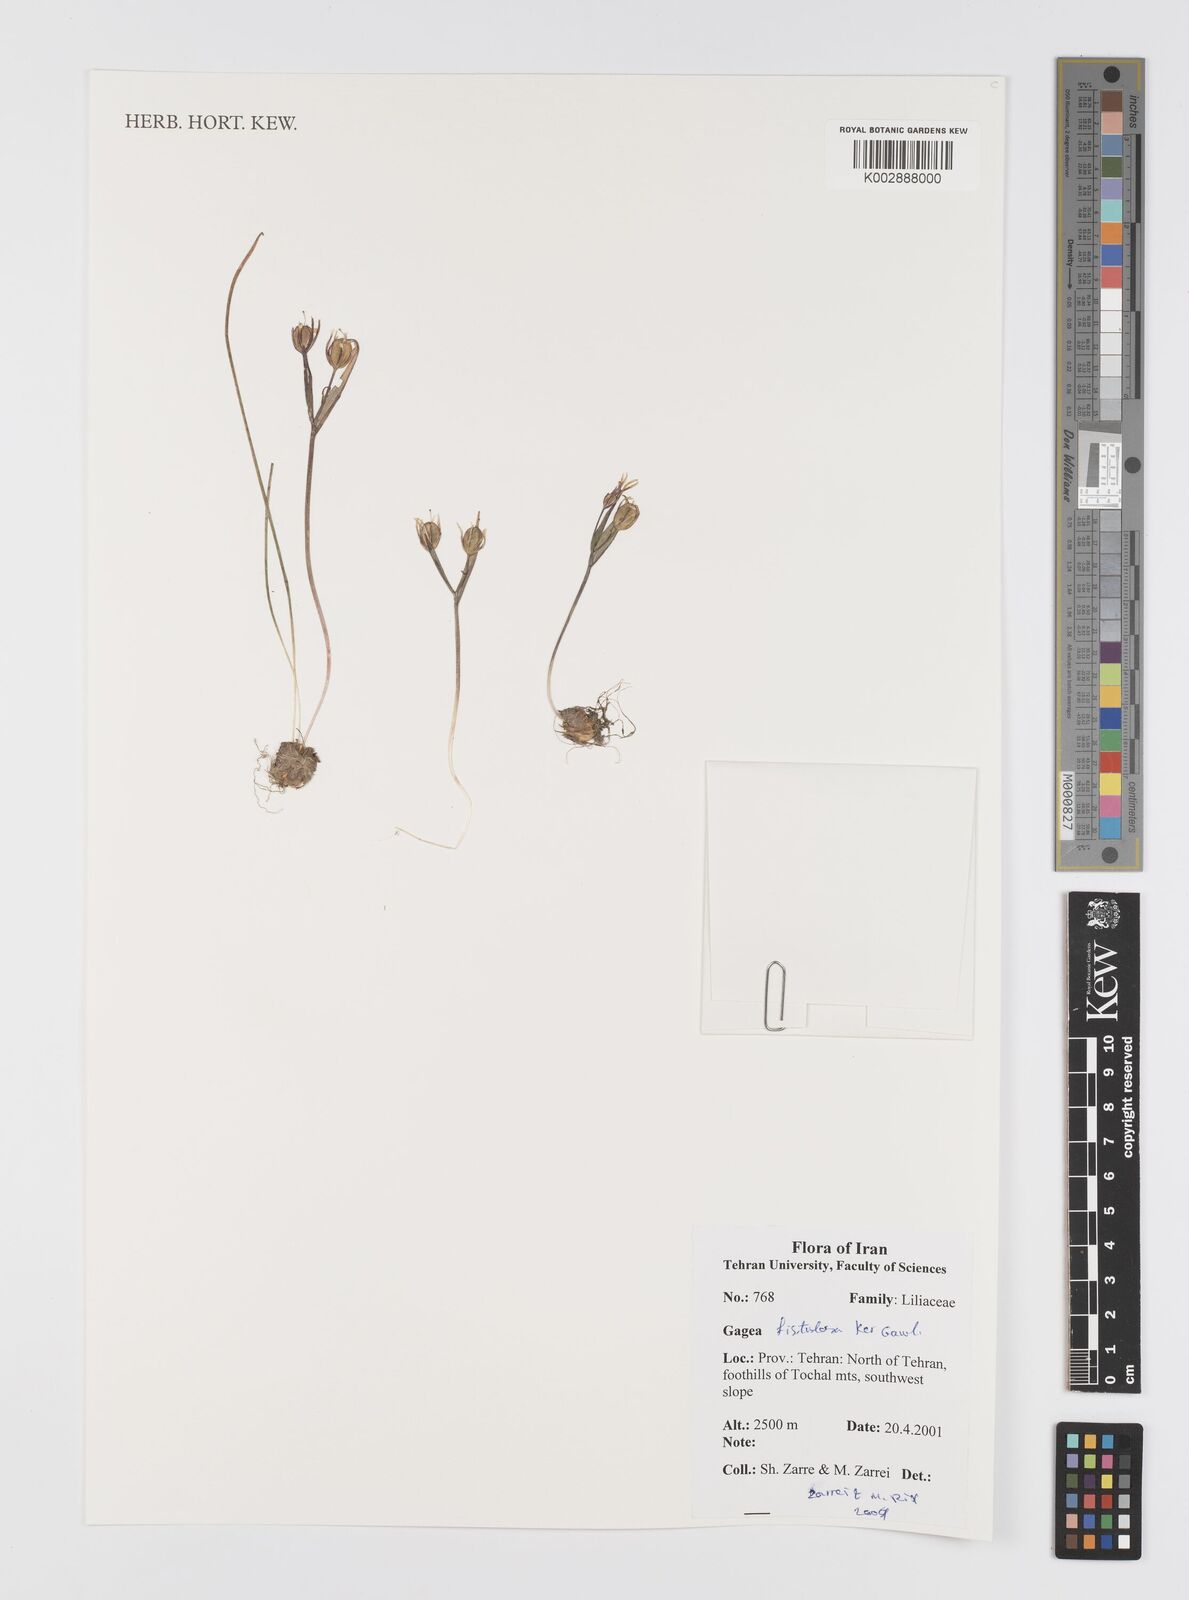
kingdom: Plantae
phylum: Tracheophyta
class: Liliopsida
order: Liliales
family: Liliaceae
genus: Gagea
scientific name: Gagea bohemica
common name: Early star-of-bethlehem
